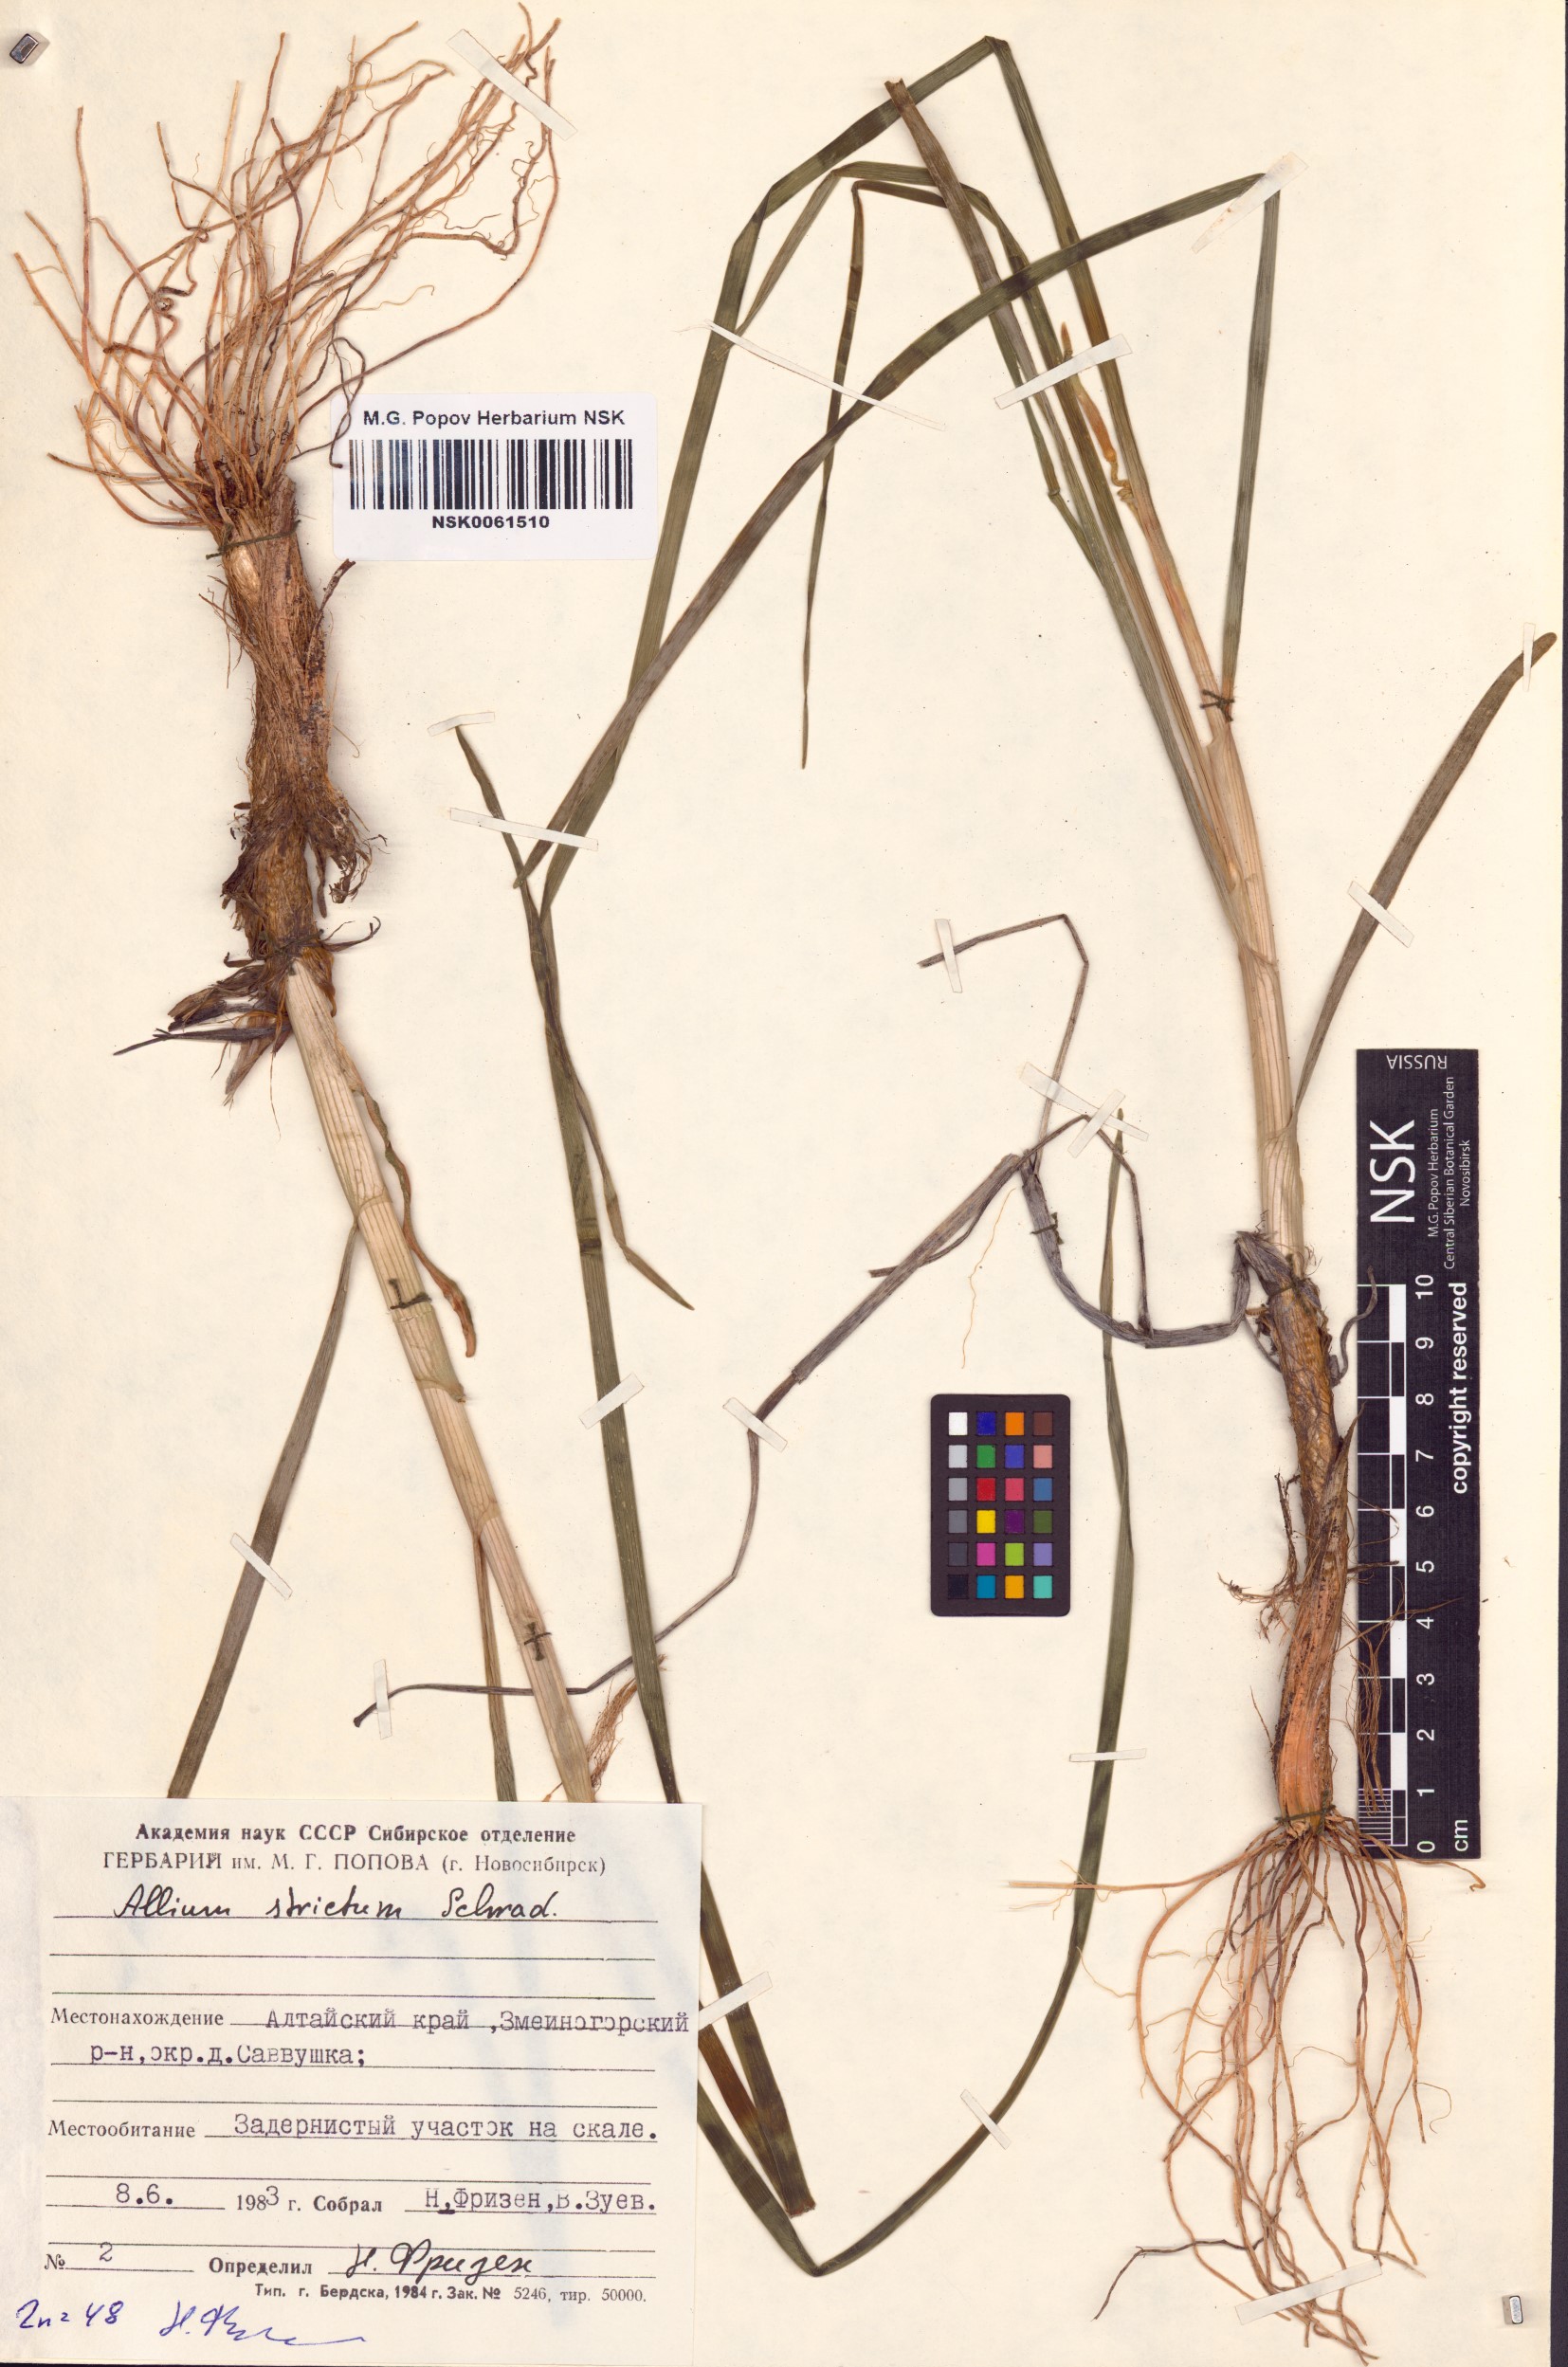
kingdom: Plantae
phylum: Tracheophyta
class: Liliopsida
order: Asparagales
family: Amaryllidaceae
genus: Allium
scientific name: Allium strictum
